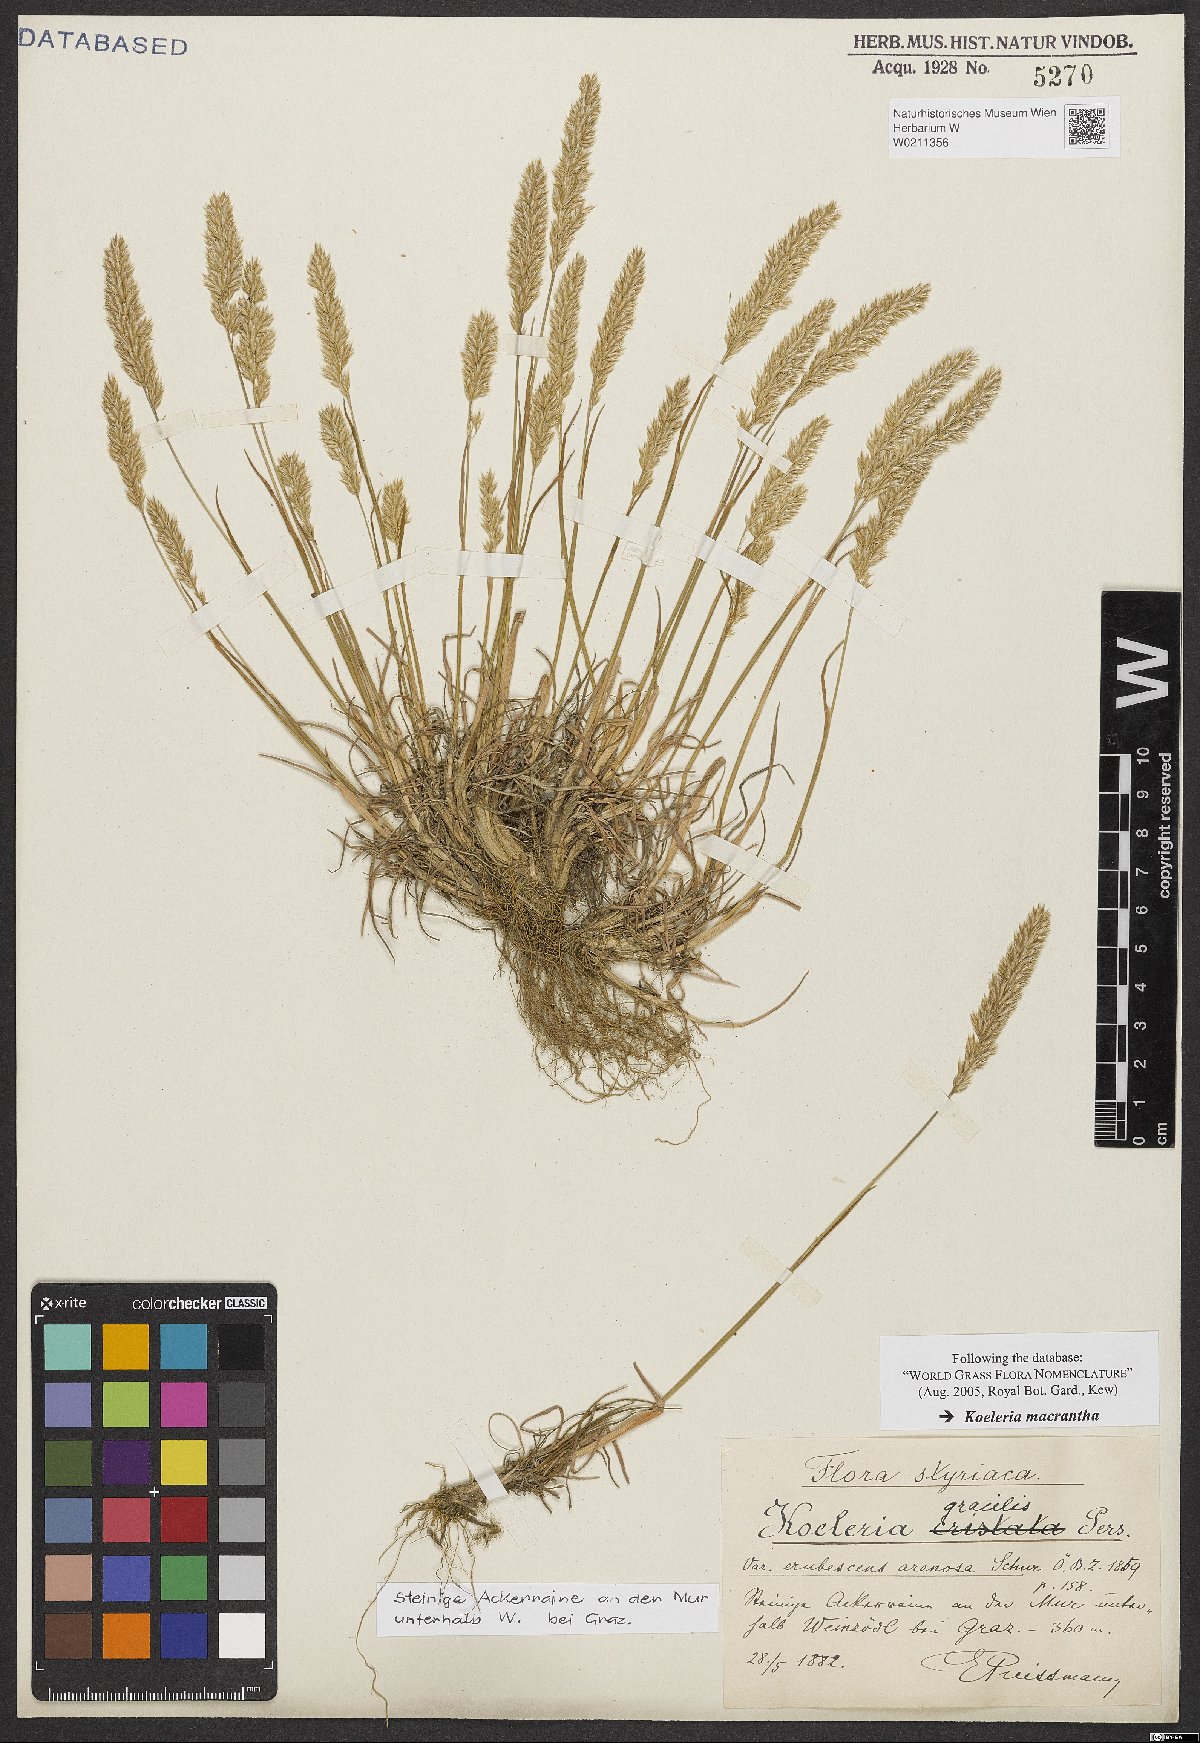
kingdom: Plantae
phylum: Tracheophyta
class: Liliopsida
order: Poales
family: Poaceae
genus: Koeleria
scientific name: Koeleria macrantha
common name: Crested hair-grass
